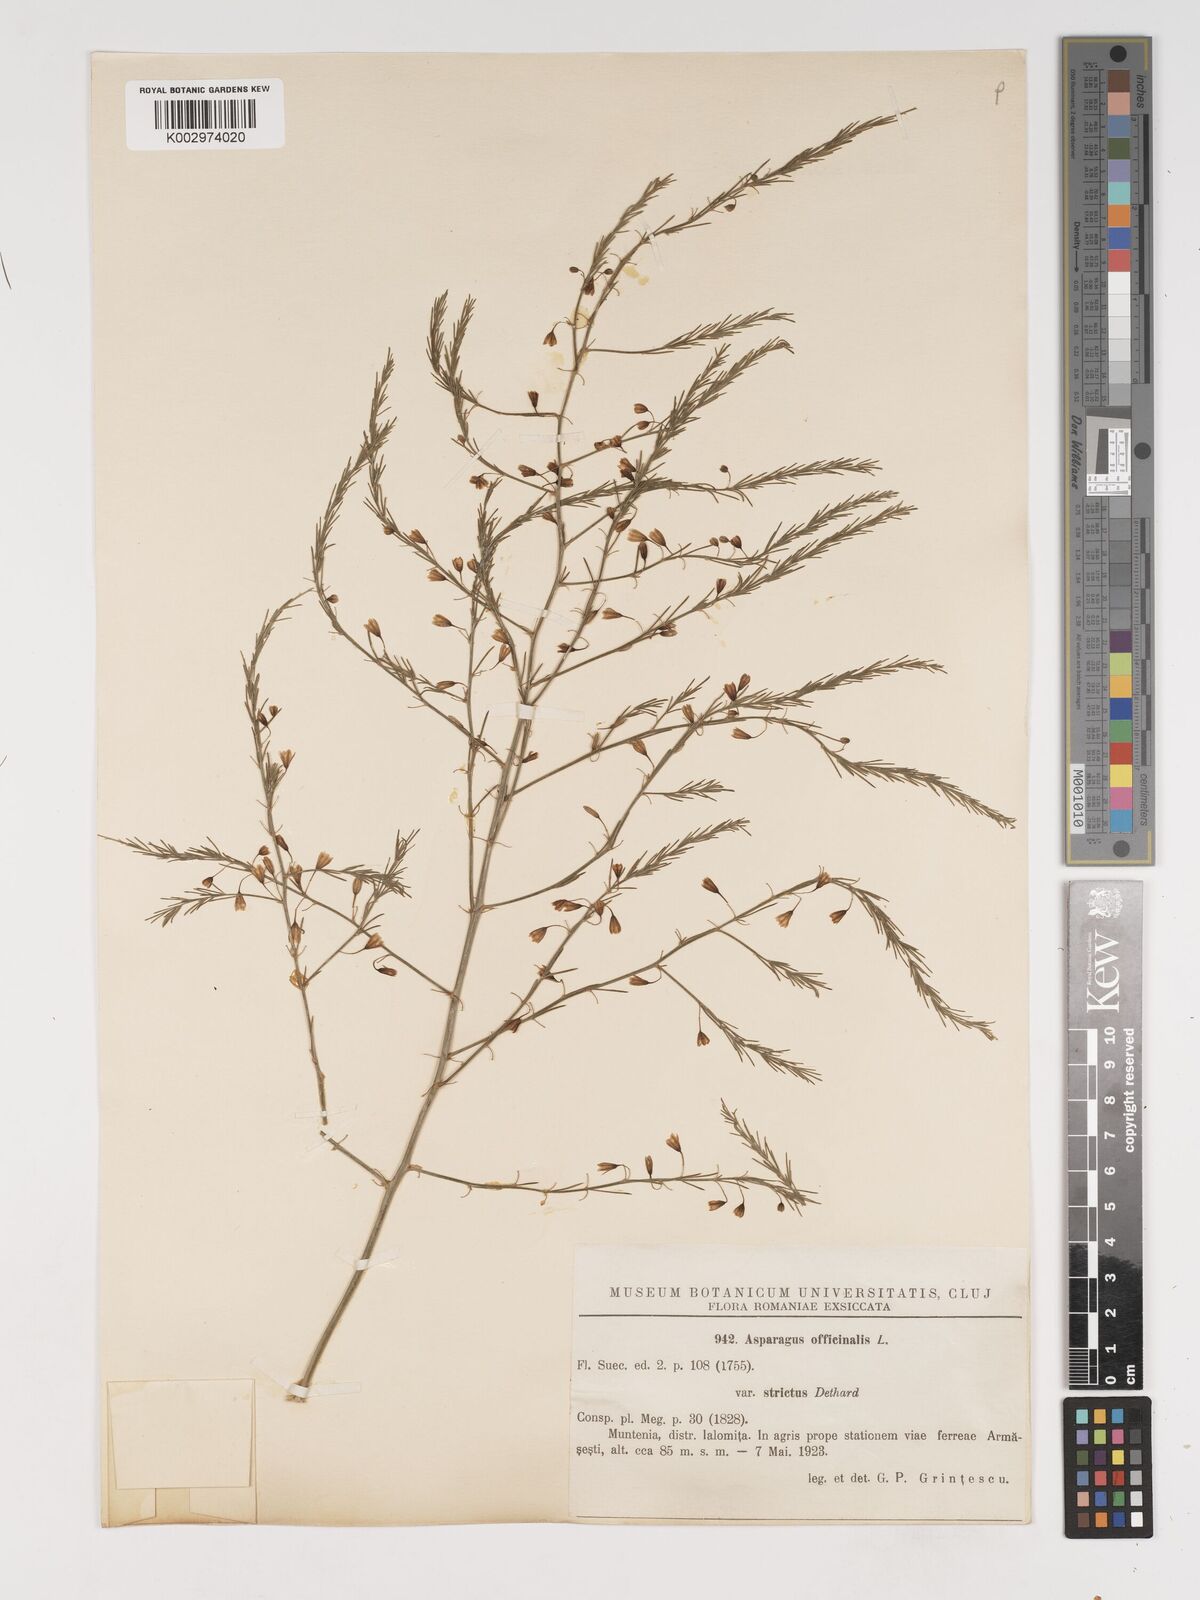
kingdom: Plantae
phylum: Tracheophyta
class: Liliopsida
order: Asparagales
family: Asparagaceae
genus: Asparagus
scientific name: Asparagus officinalis
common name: Garden asparagus
